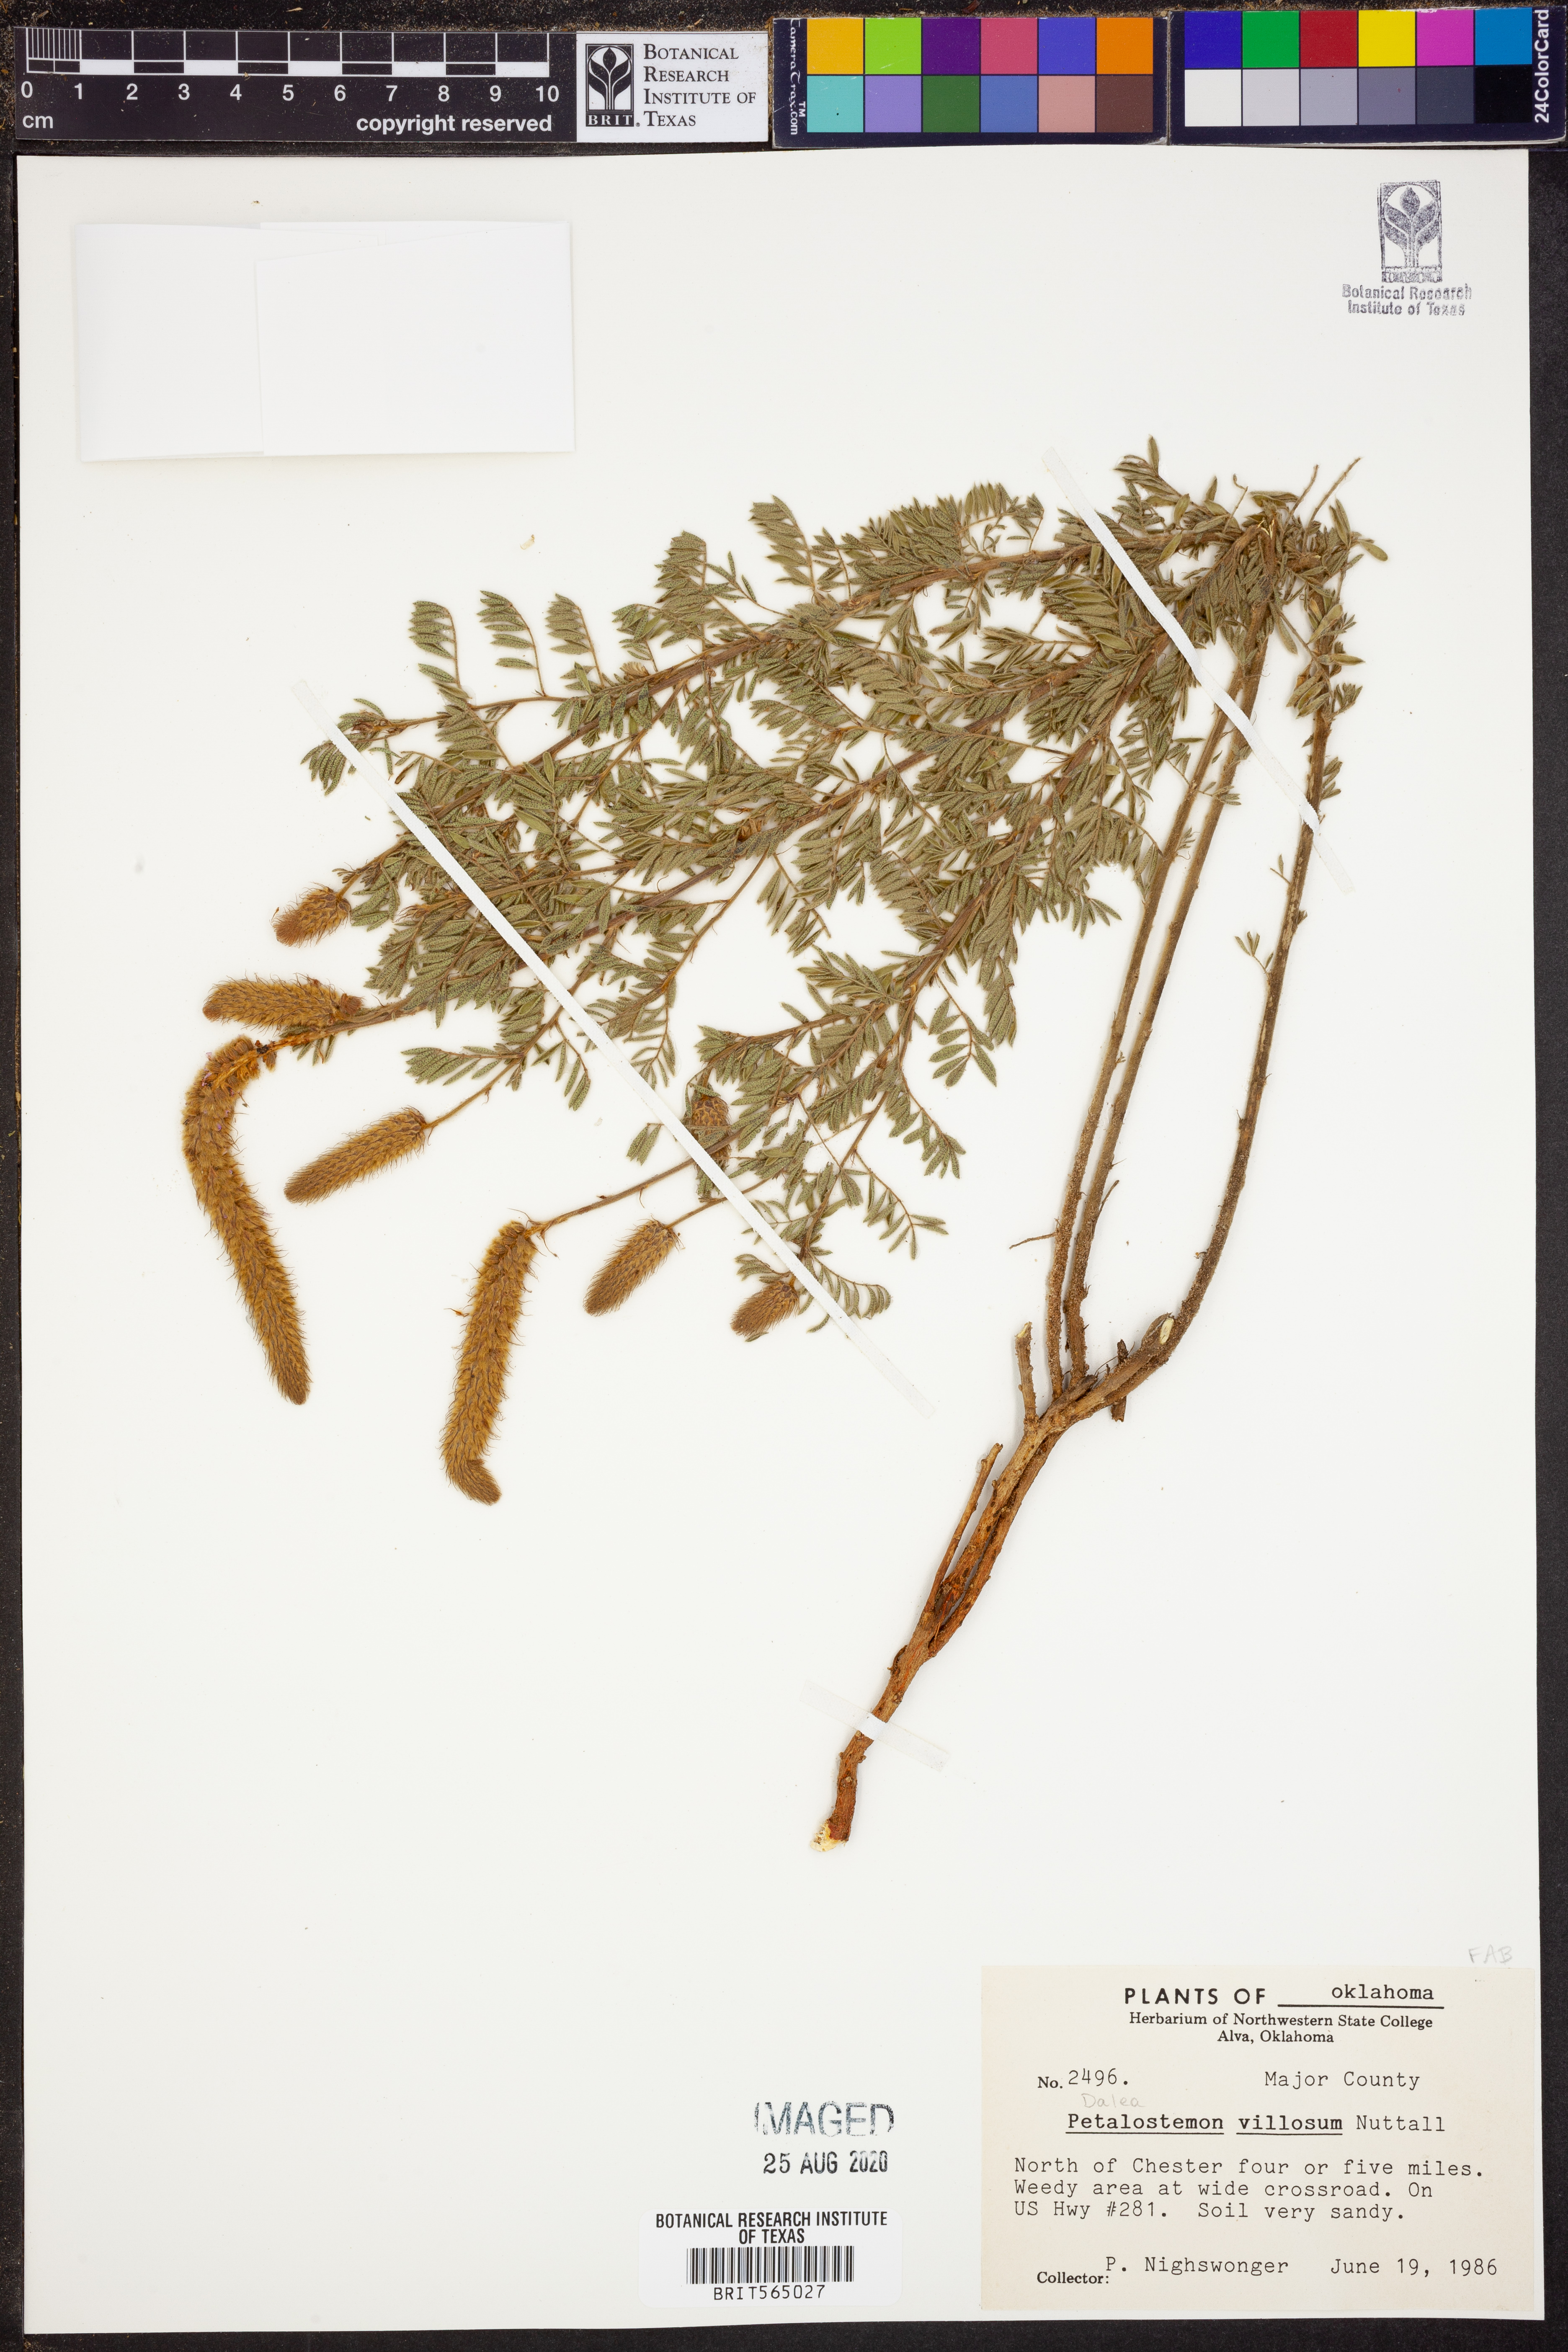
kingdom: Plantae
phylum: Tracheophyta
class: Magnoliopsida
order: Fabales
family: Fabaceae
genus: Dalea
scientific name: Dalea villosa
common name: Silky prairie-clover
